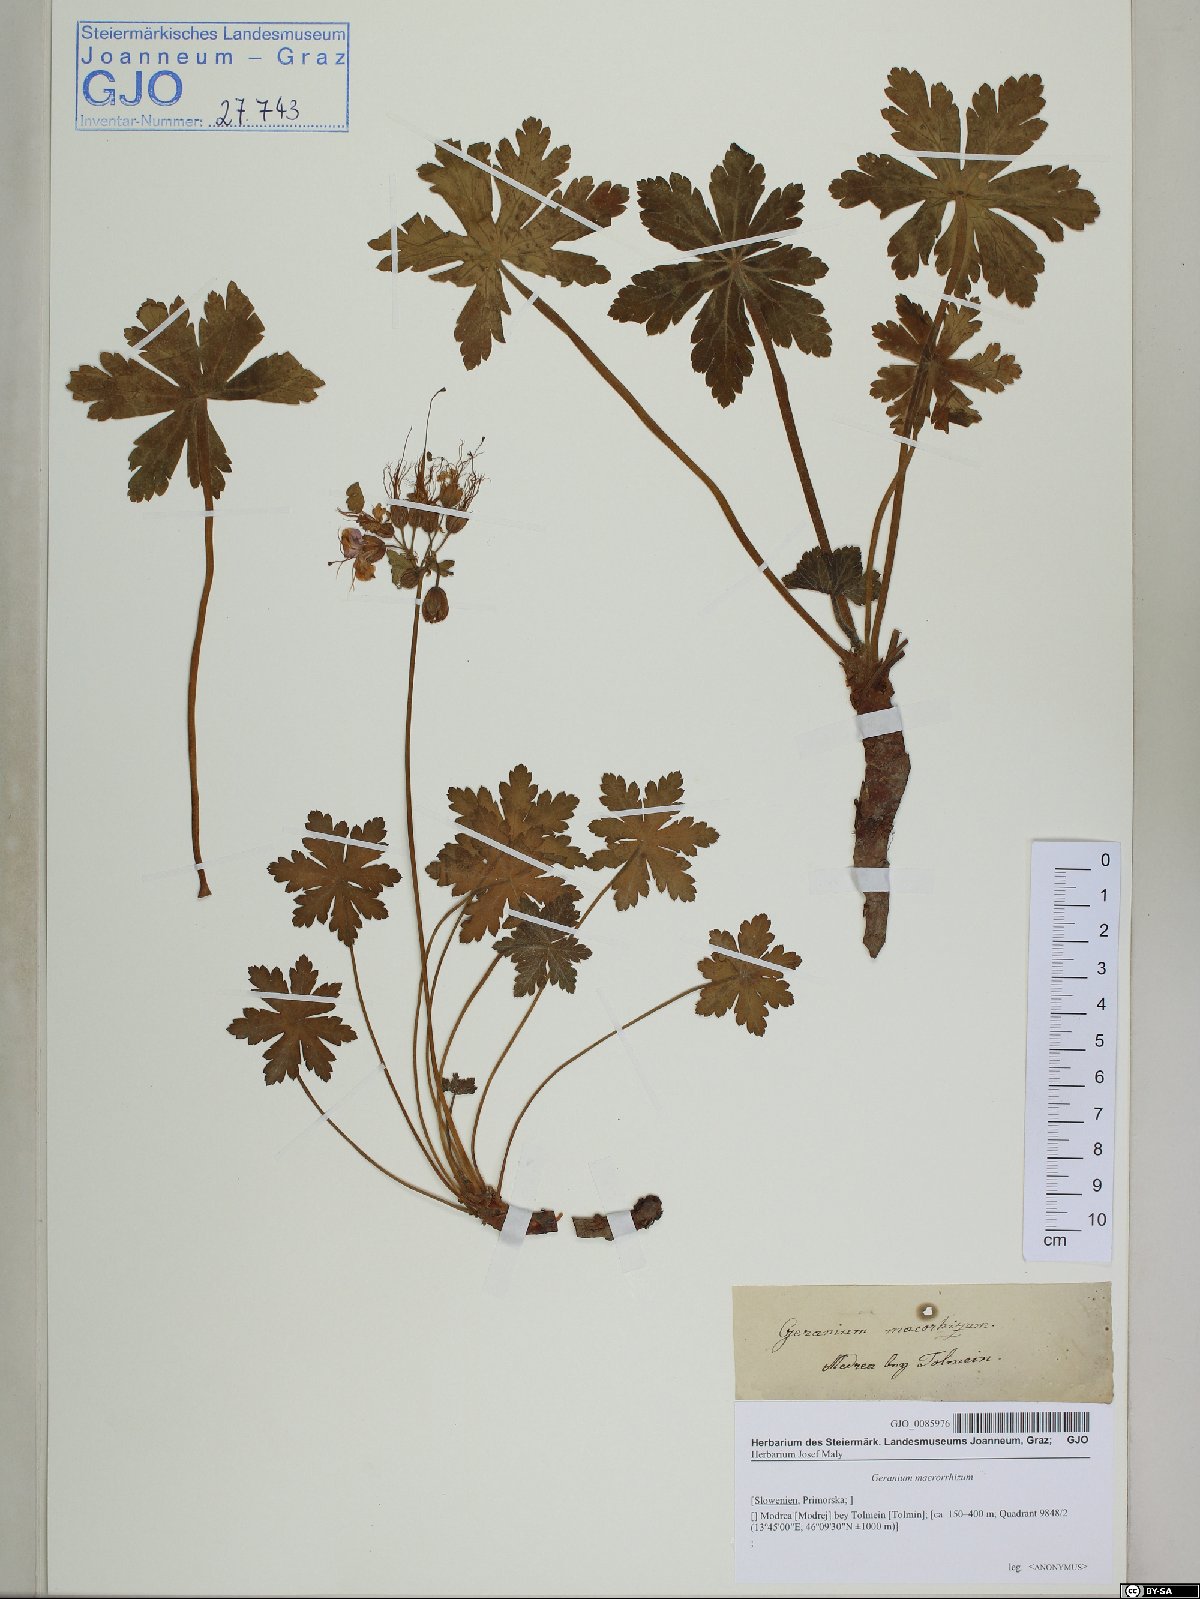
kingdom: Plantae
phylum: Tracheophyta
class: Magnoliopsida
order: Geraniales
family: Geraniaceae
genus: Geranium
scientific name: Geranium macrorrhizum
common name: Rock crane's-bill
